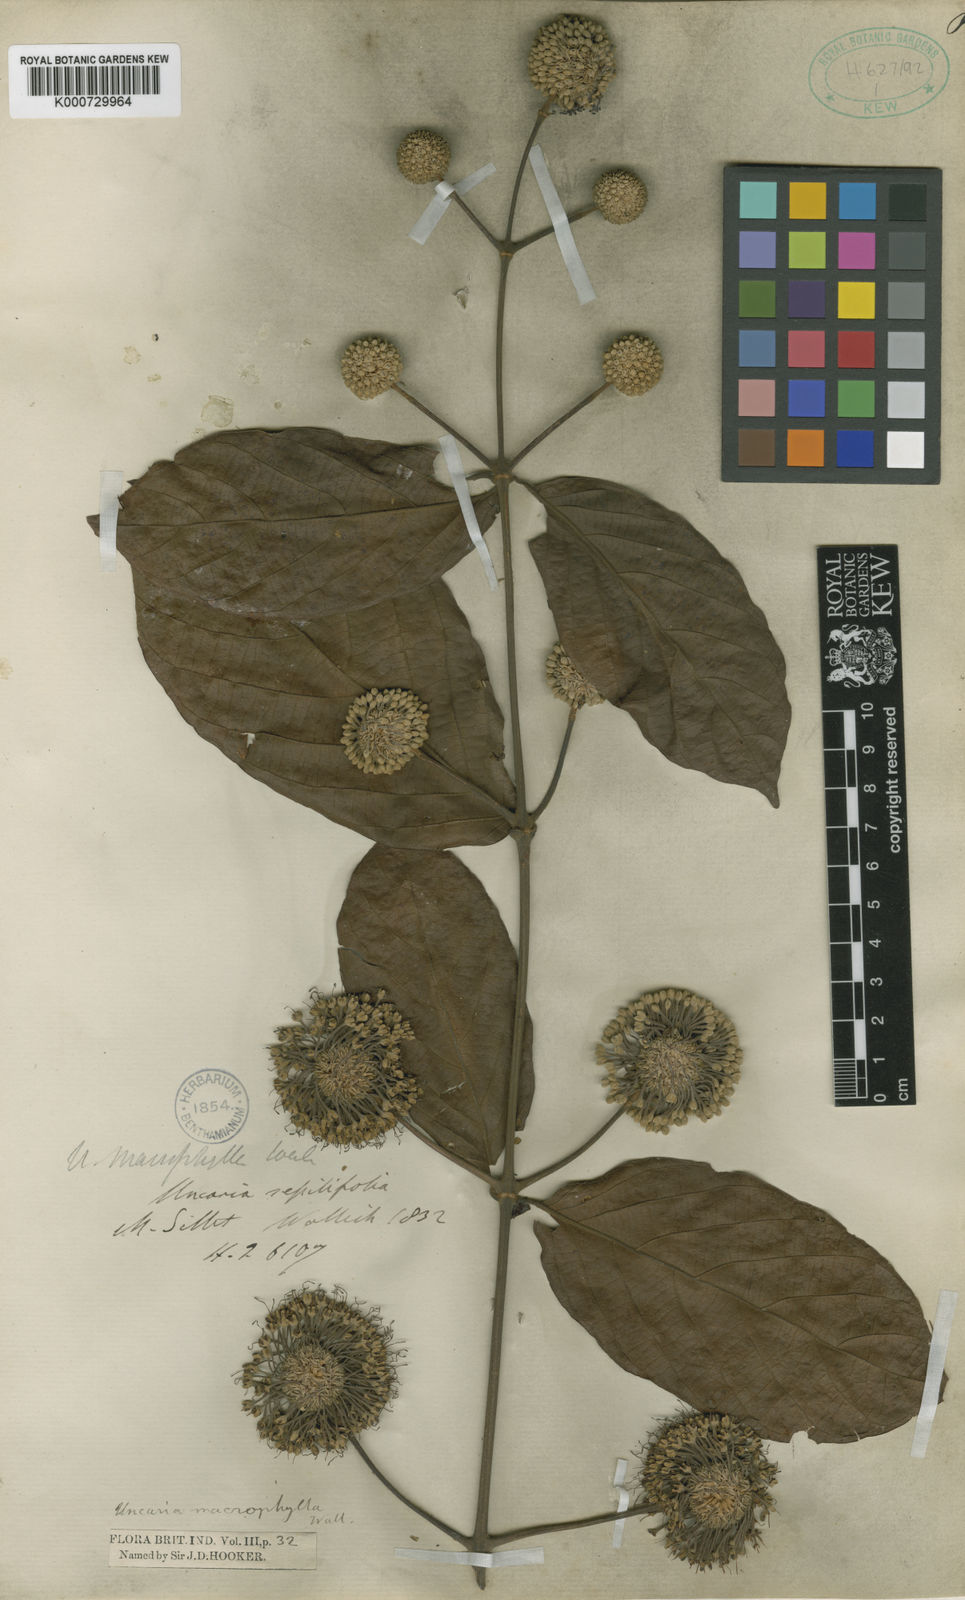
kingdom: Plantae
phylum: Tracheophyta
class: Magnoliopsida
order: Gentianales
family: Rubiaceae
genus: Uncaria
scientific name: Uncaria macrophylla
